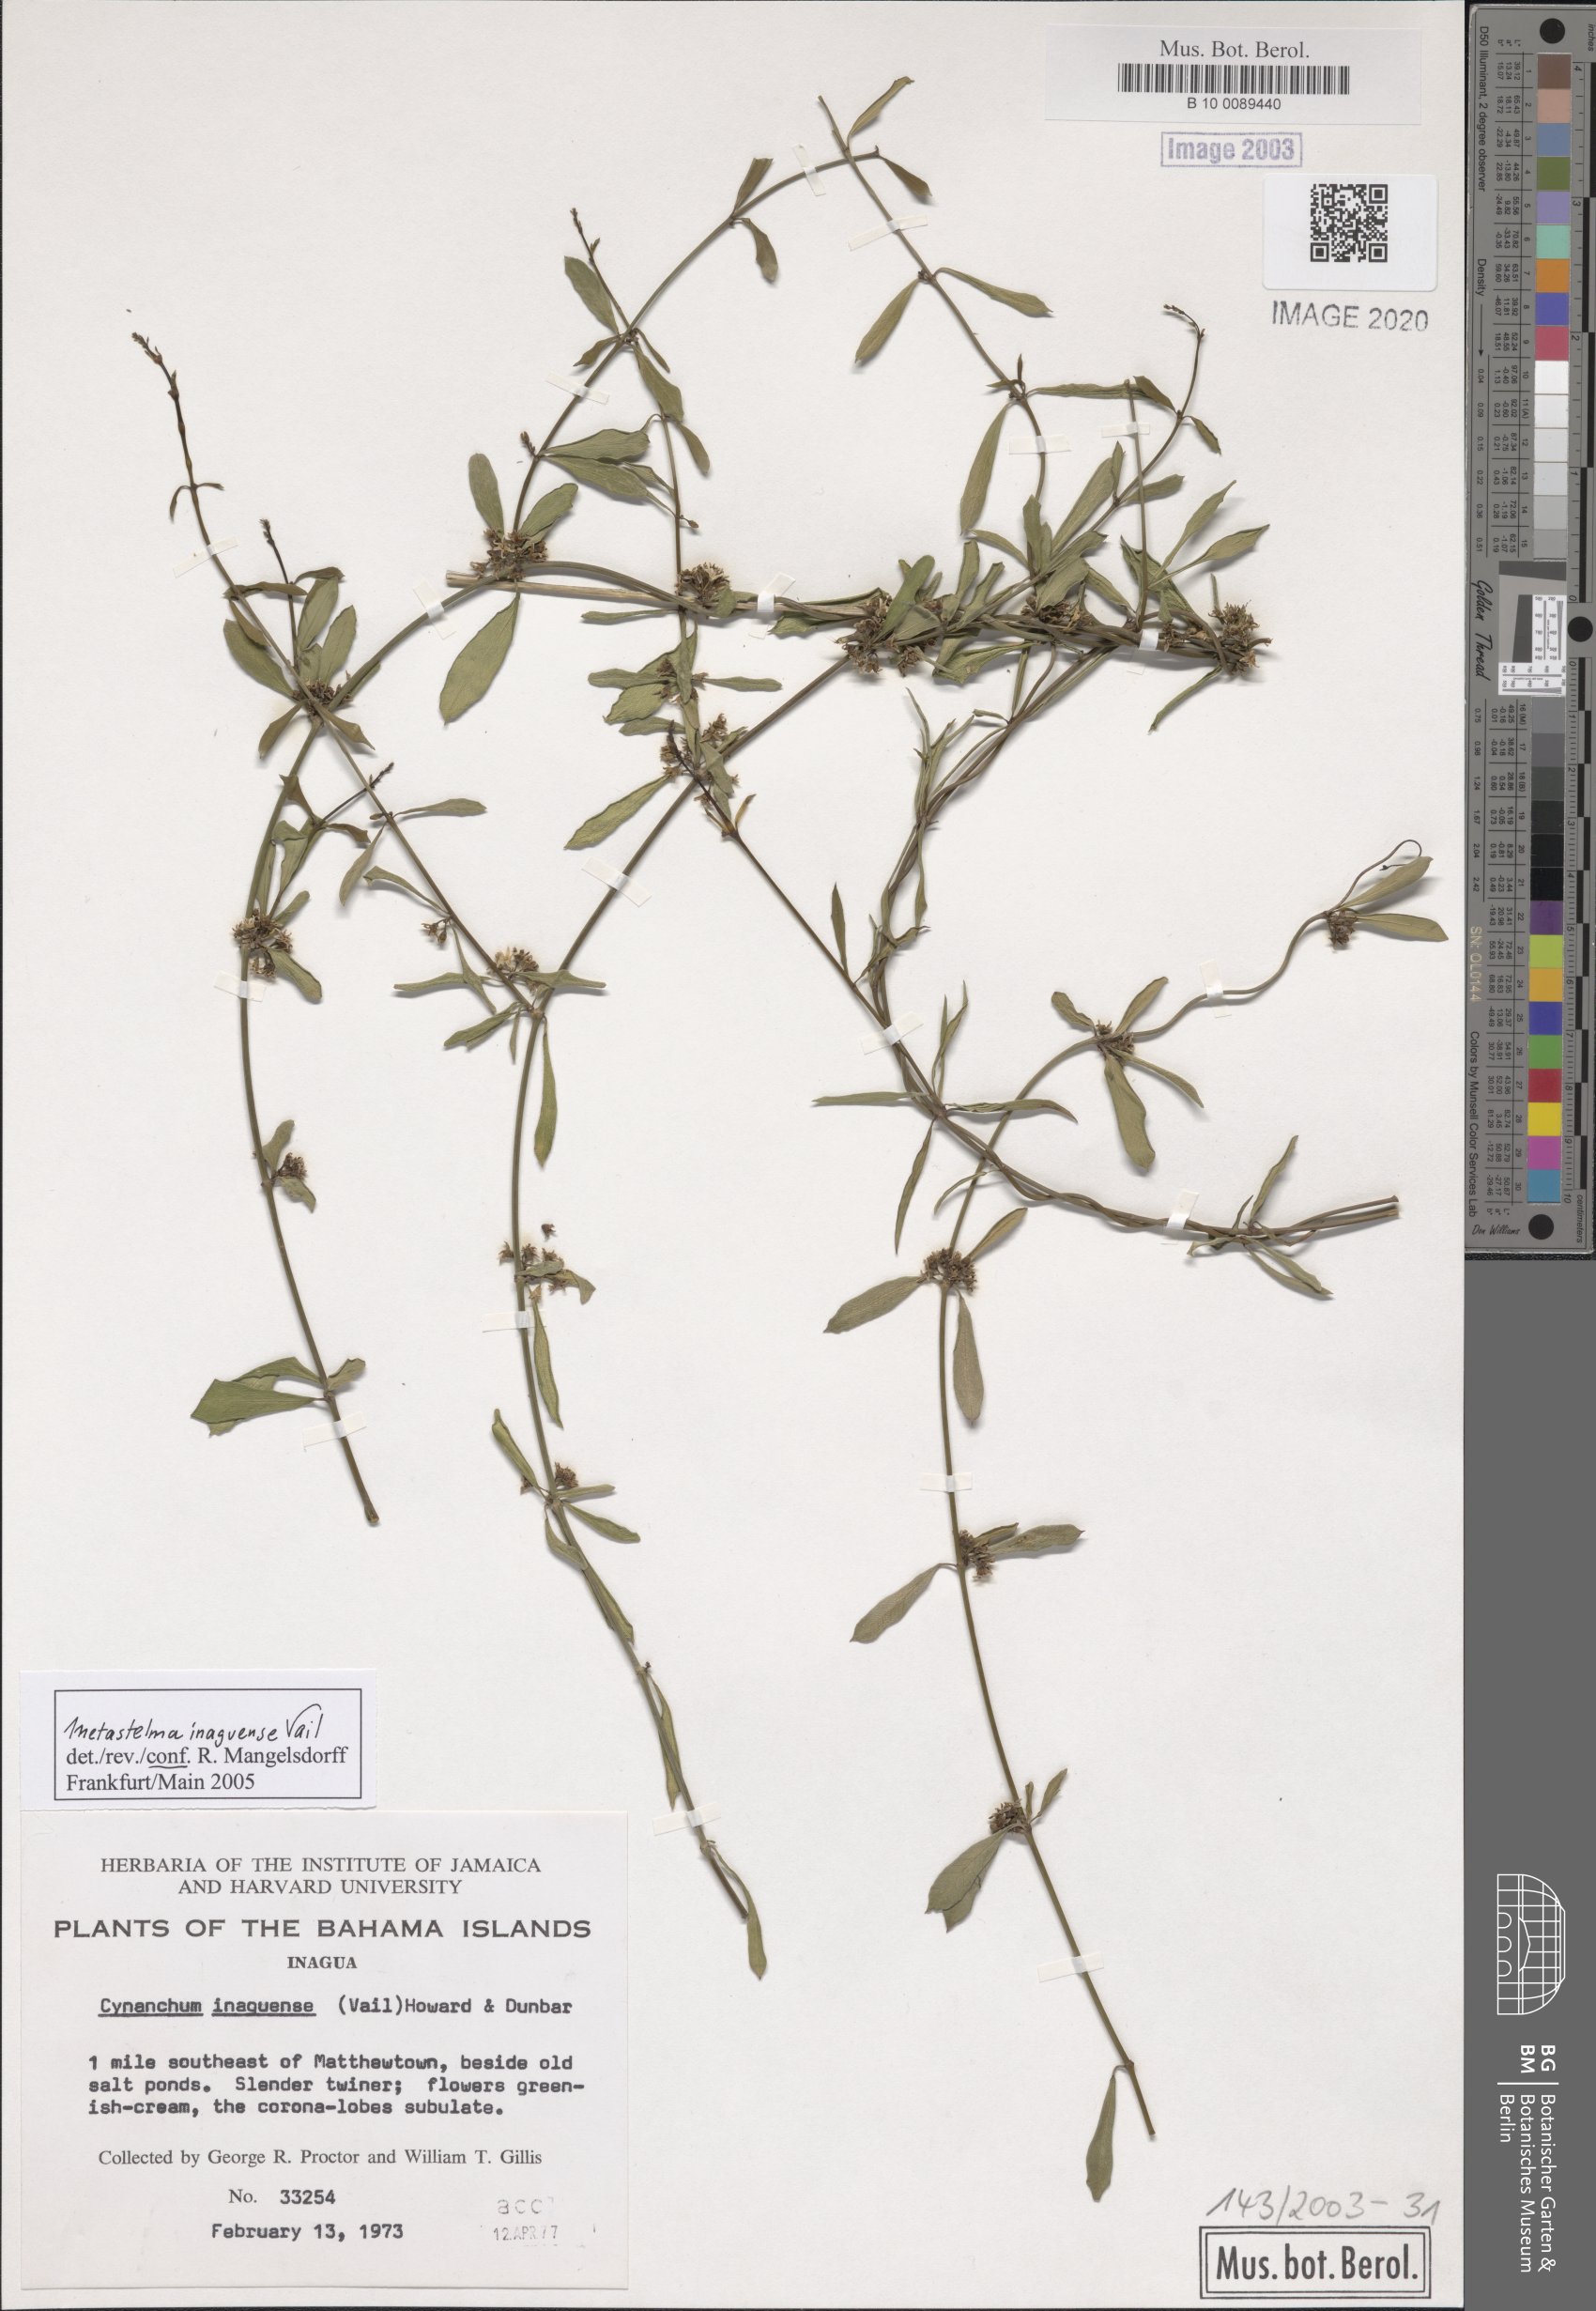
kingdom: Plantae
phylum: Tracheophyta
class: Magnoliopsida
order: Gentianales
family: Apocynaceae
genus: Metastelma
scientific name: Metastelma inaguense
